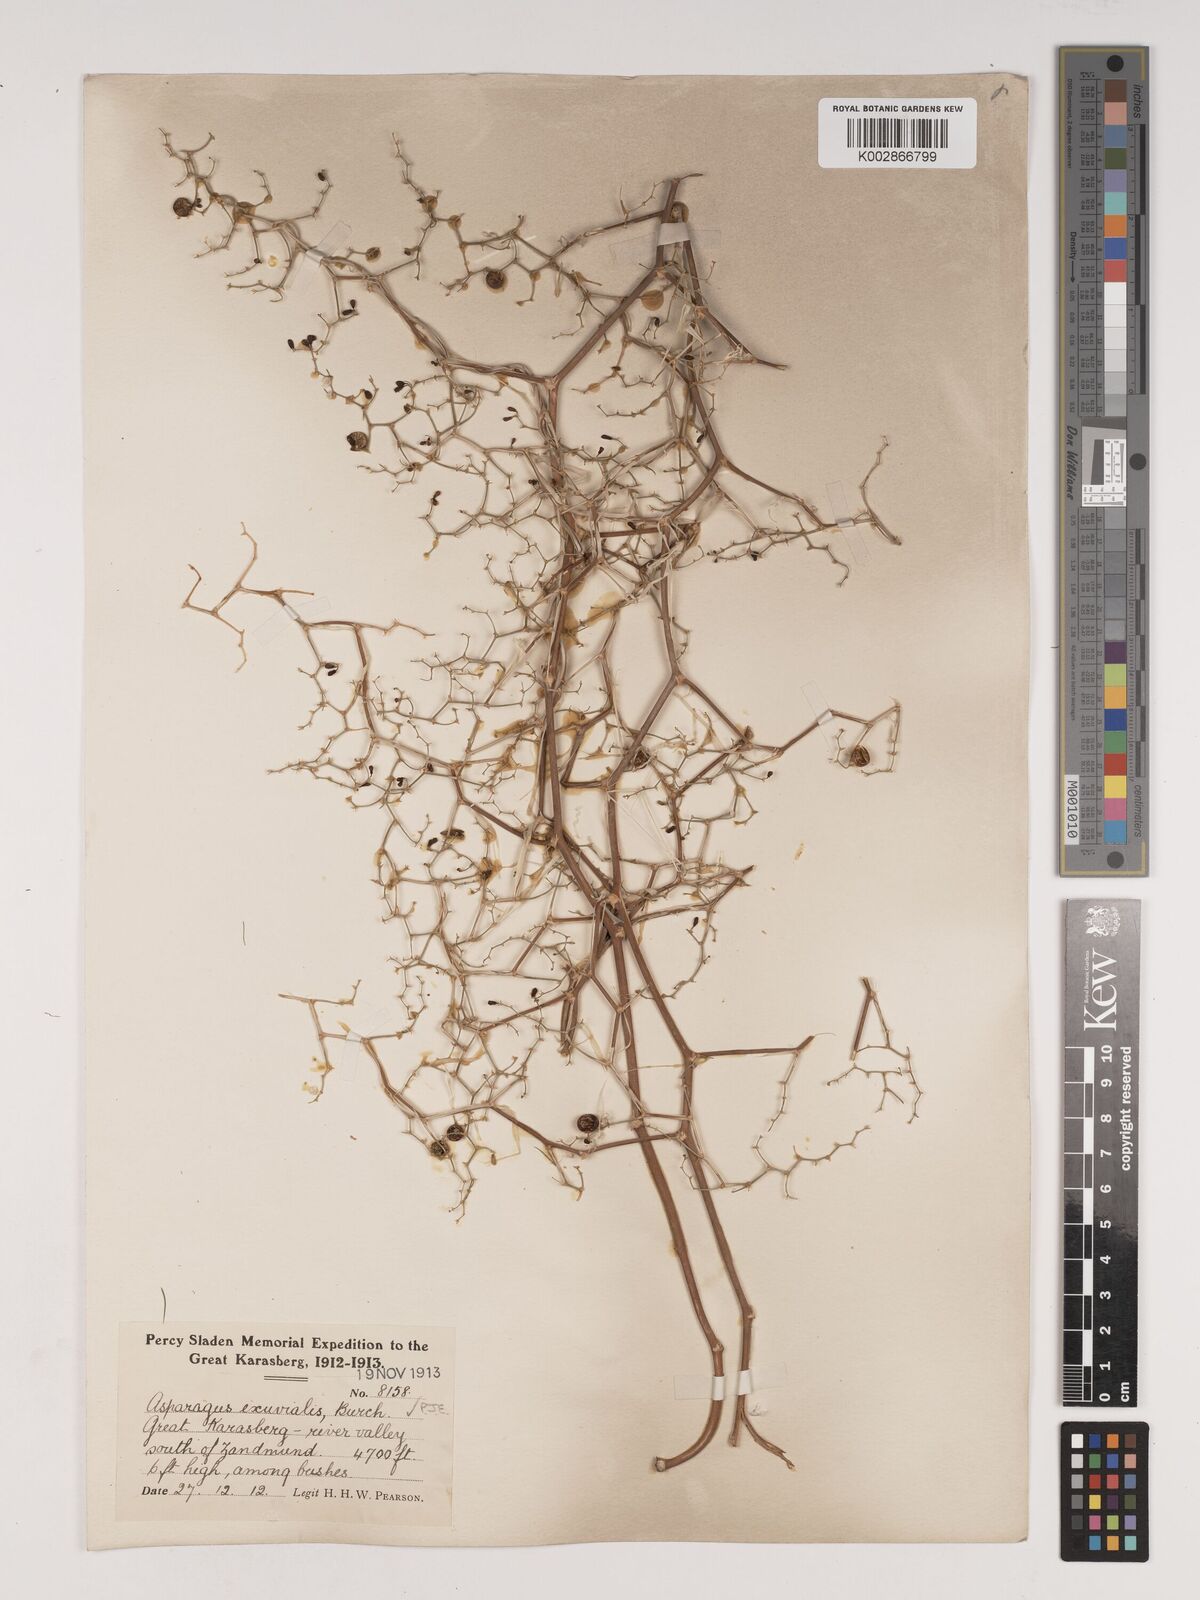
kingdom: Plantae
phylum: Tracheophyta
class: Liliopsida
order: Asparagales
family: Asparagaceae
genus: Asparagus
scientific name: Asparagus exuvialis
